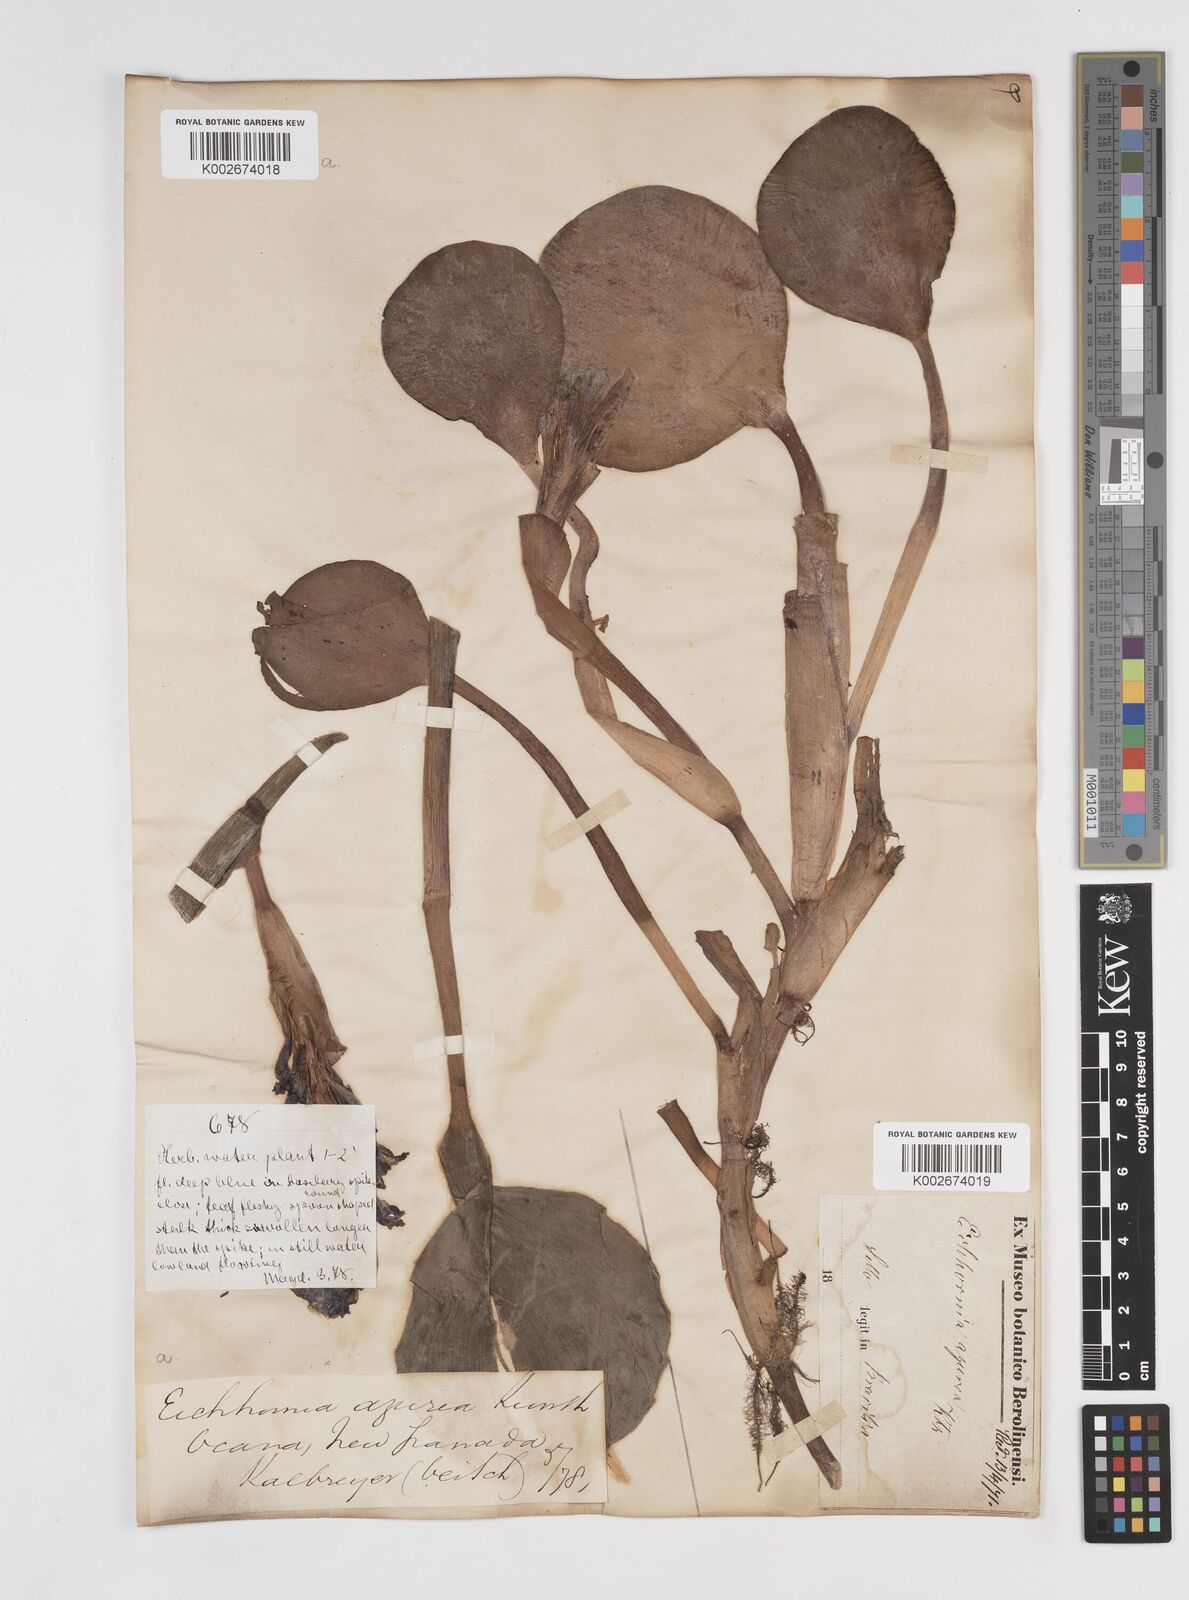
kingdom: Plantae
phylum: Tracheophyta
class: Liliopsida
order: Commelinales
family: Pontederiaceae
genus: Pontederia
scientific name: Pontederia azurea
